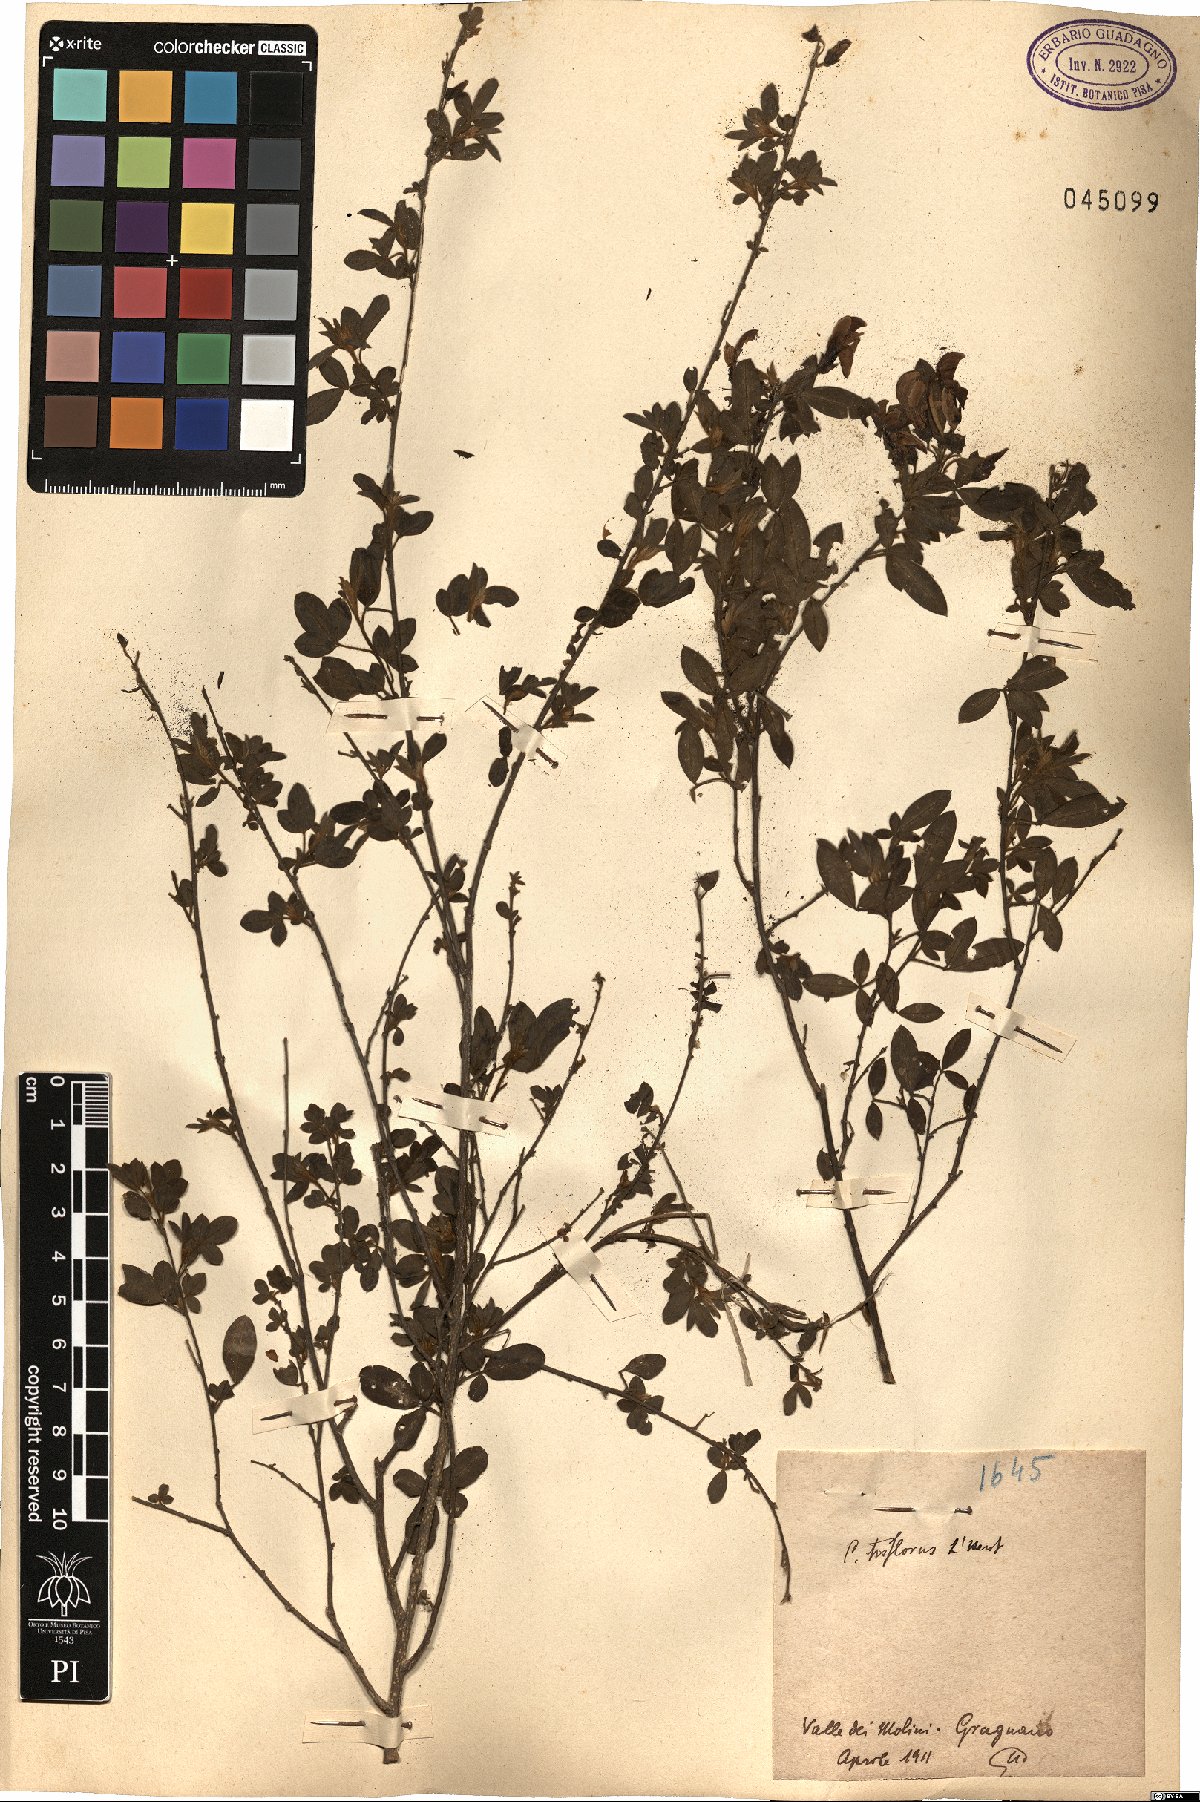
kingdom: Plantae
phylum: Tracheophyta
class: Magnoliopsida
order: Fabales
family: Fabaceae
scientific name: Fabaceae
